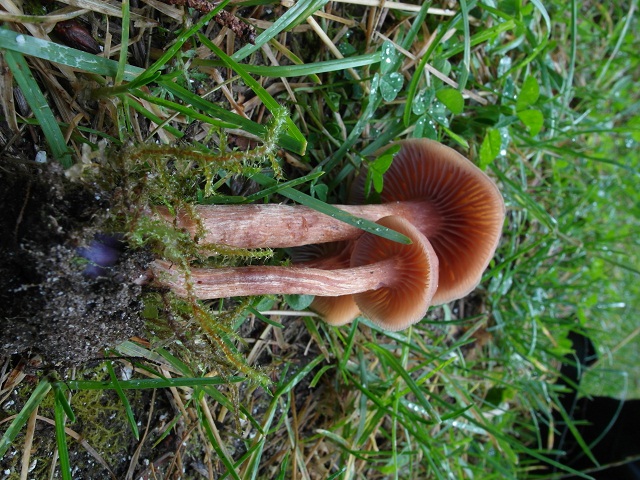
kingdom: Fungi
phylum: Basidiomycota
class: Agaricomycetes
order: Agaricales
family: Hydnangiaceae
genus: Laccaria
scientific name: Laccaria bicolor
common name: tvefarvet ametysthat
